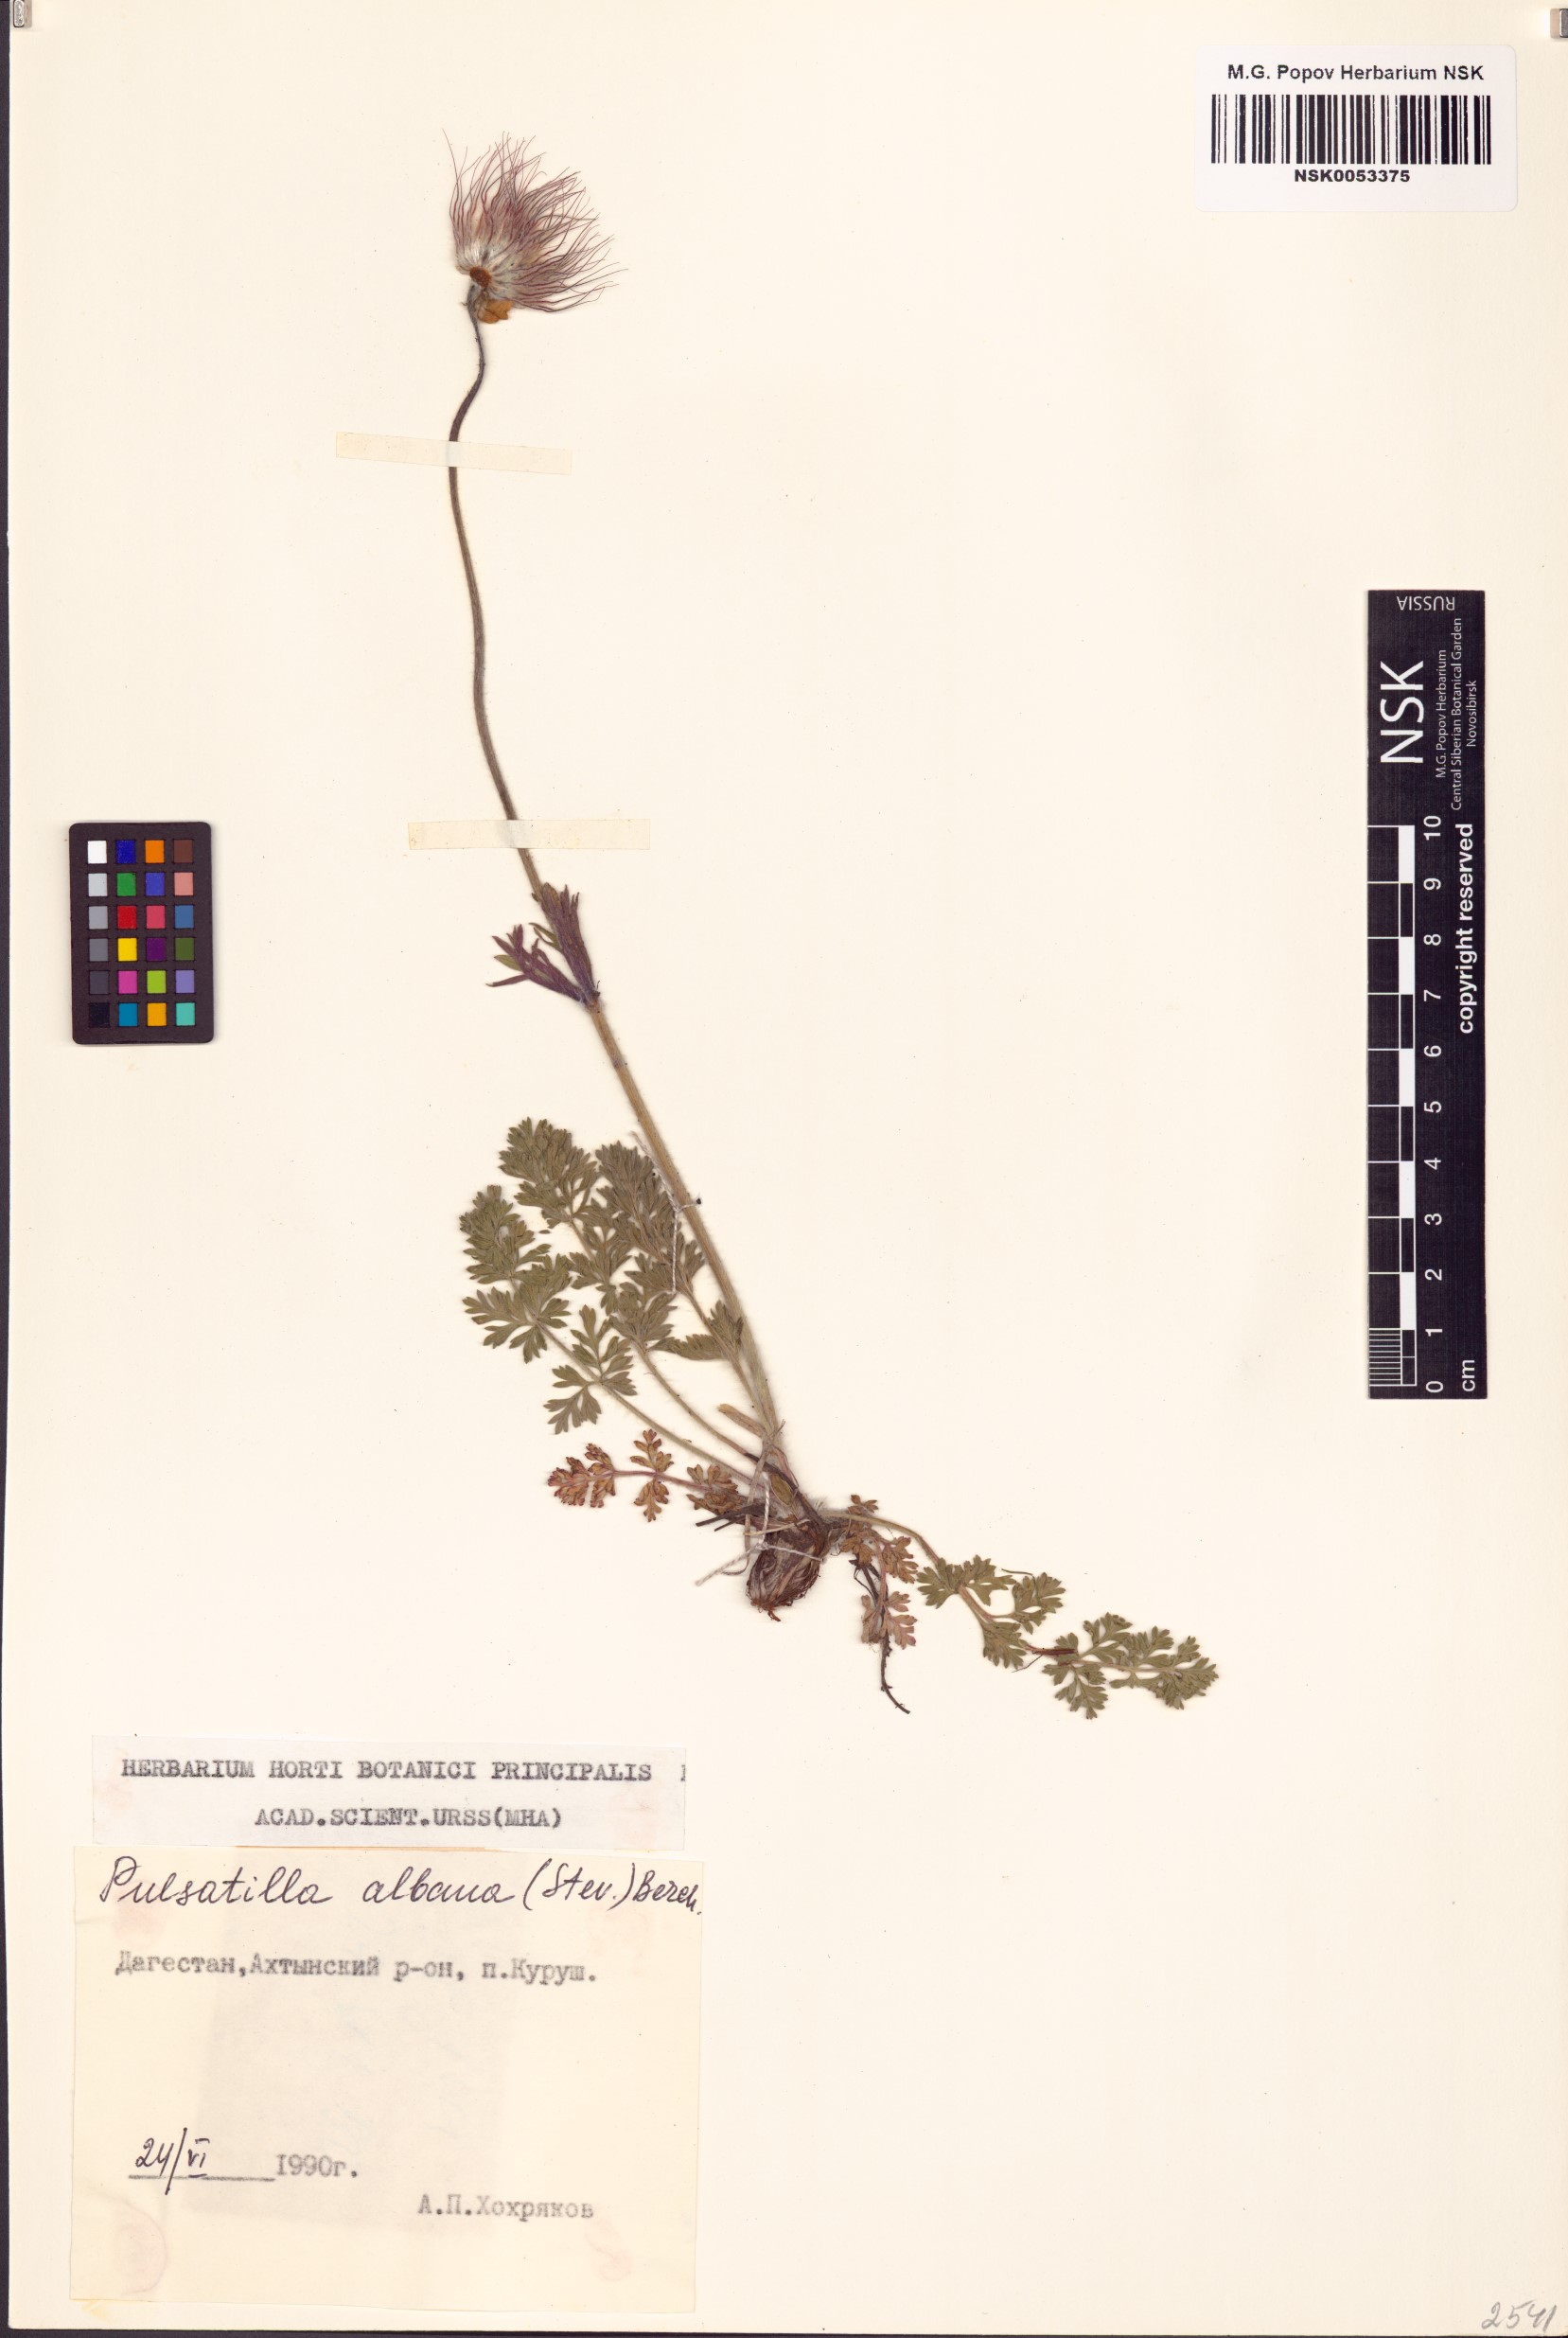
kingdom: Plantae
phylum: Tracheophyta
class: Magnoliopsida
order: Ranunculales
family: Ranunculaceae
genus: Pulsatilla
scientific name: Pulsatilla albana
